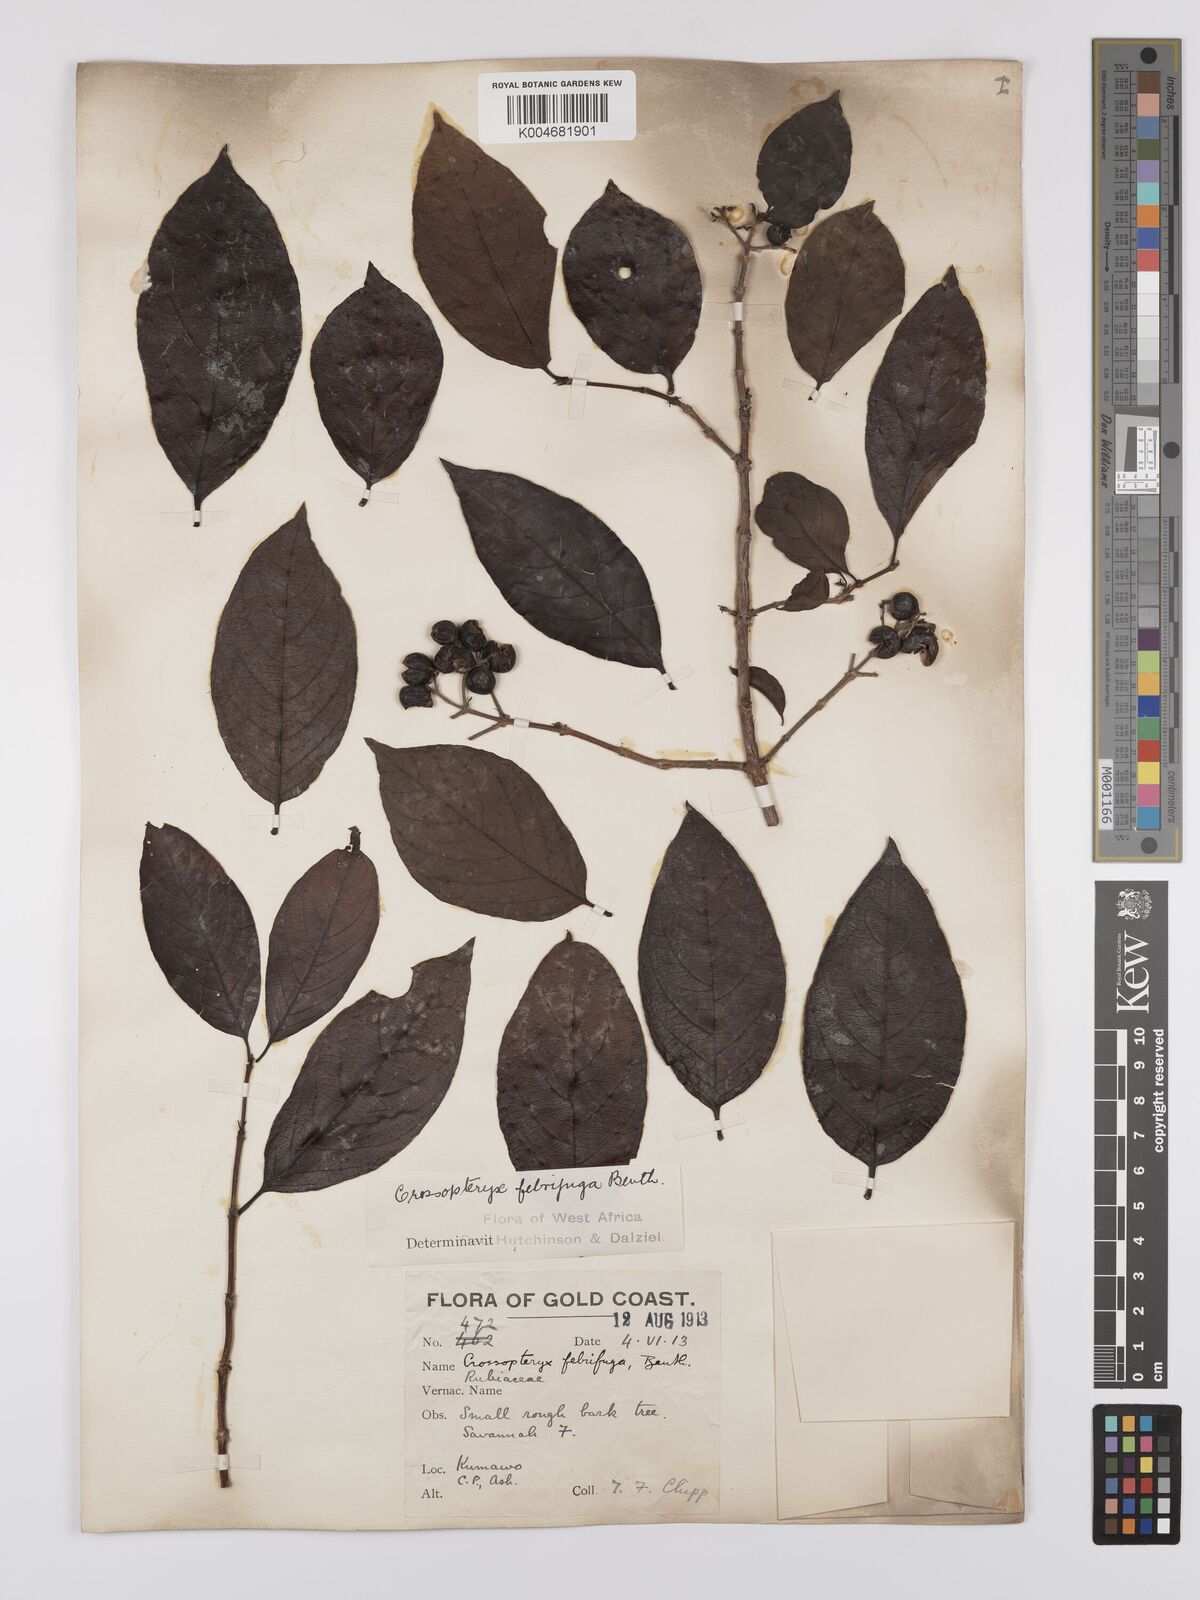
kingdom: Plantae
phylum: Tracheophyta
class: Magnoliopsida
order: Gentianales
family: Rubiaceae
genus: Crossopteryx
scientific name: Crossopteryx febrifuga
